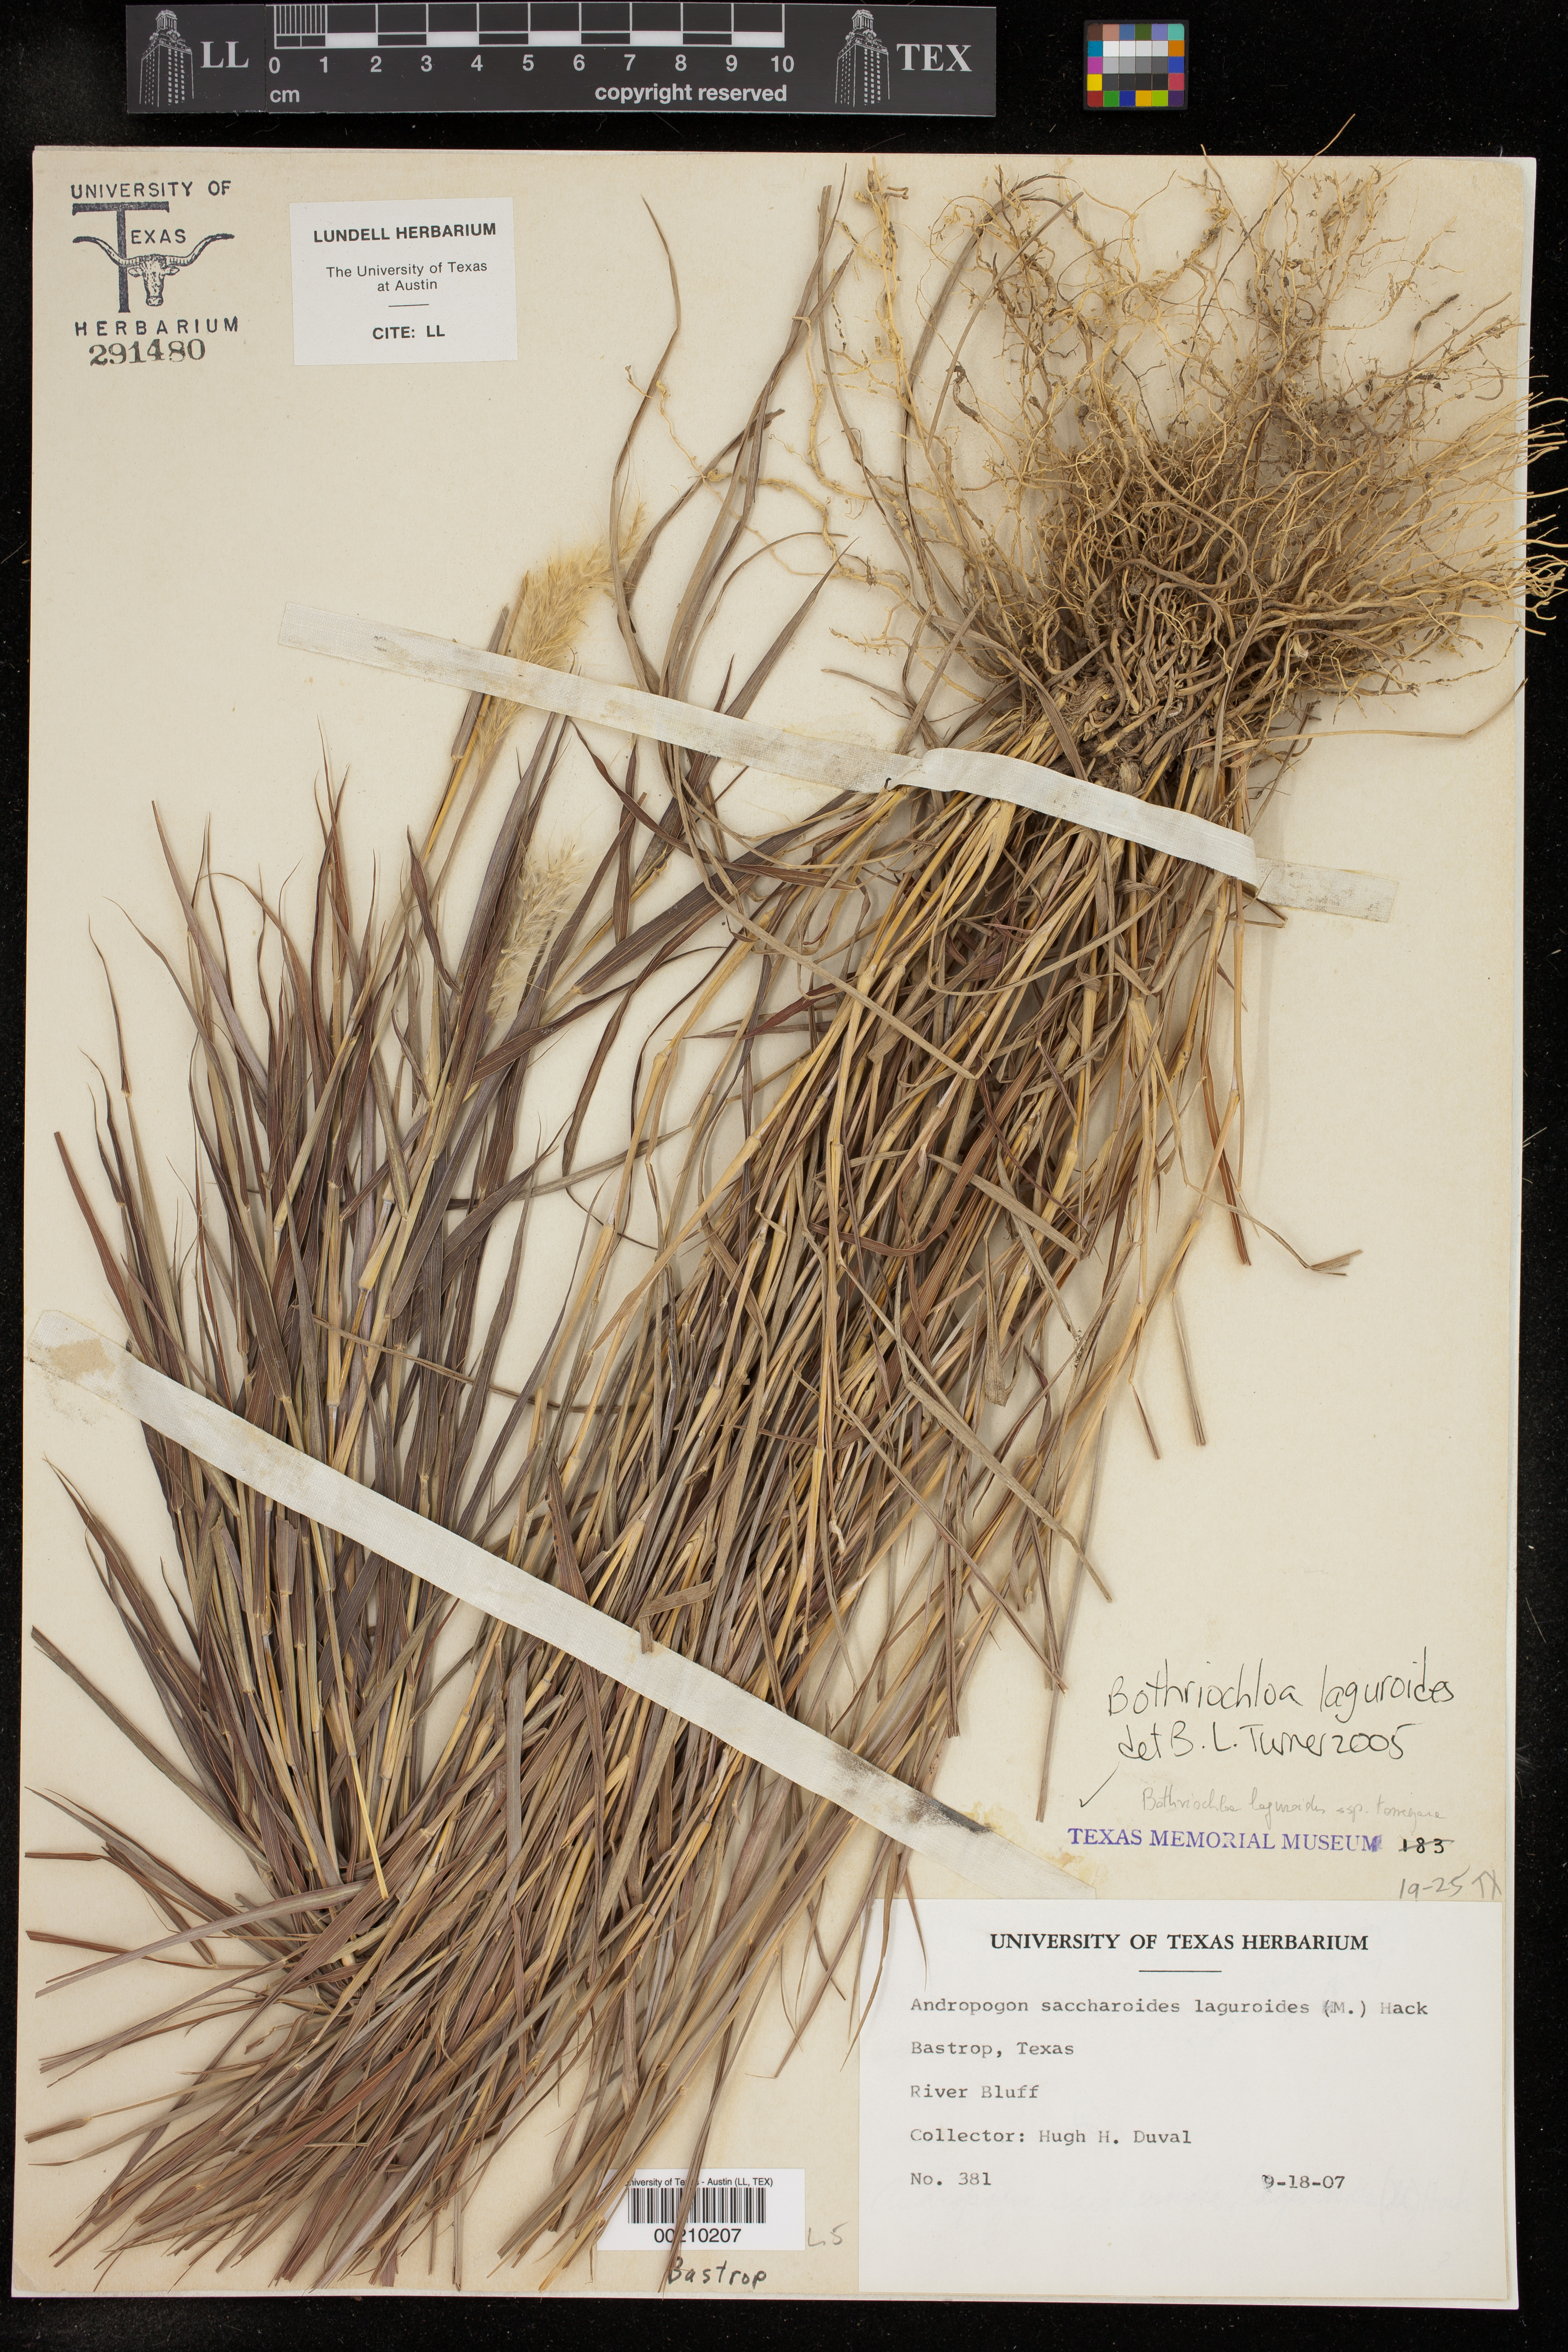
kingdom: Plantae
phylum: Tracheophyta
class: Liliopsida
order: Poales
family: Poaceae
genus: Bothriochloa
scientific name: Bothriochloa laguroides
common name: Silver bluestem
